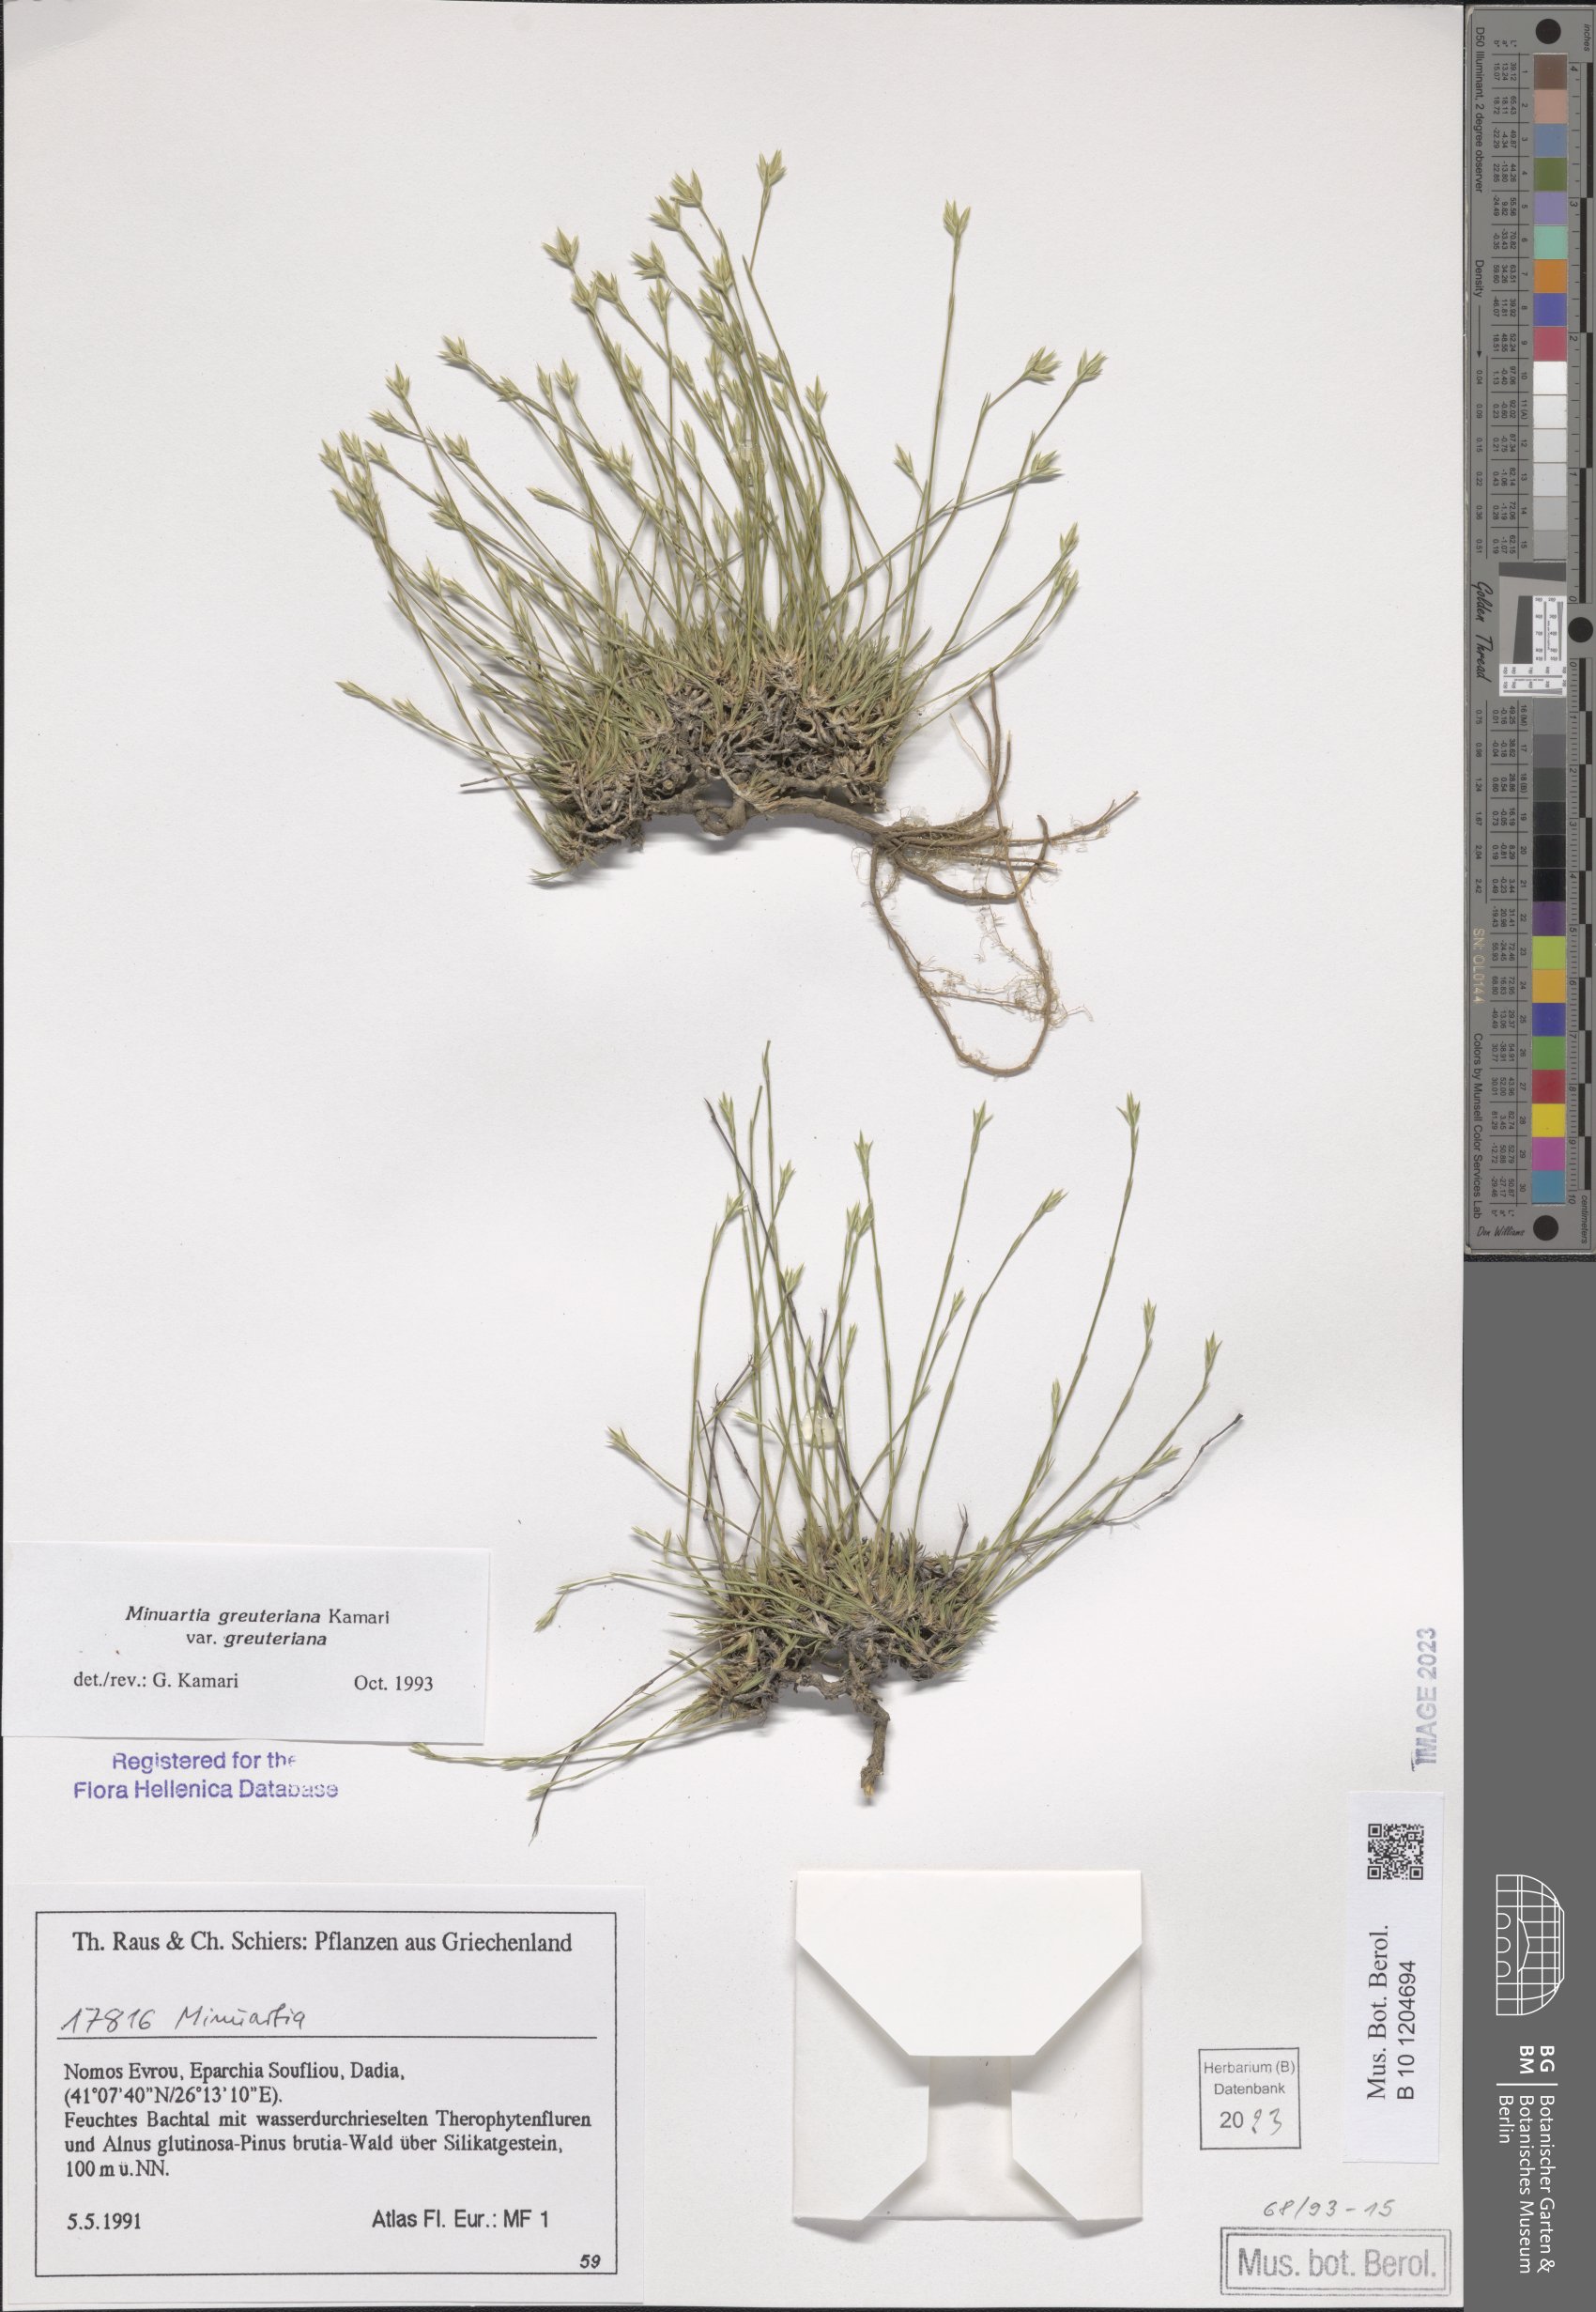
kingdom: Plantae
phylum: Tracheophyta
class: Magnoliopsida
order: Caryophyllales
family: Caryophyllaceae
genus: Minuartia
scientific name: Minuartia greuteriana
